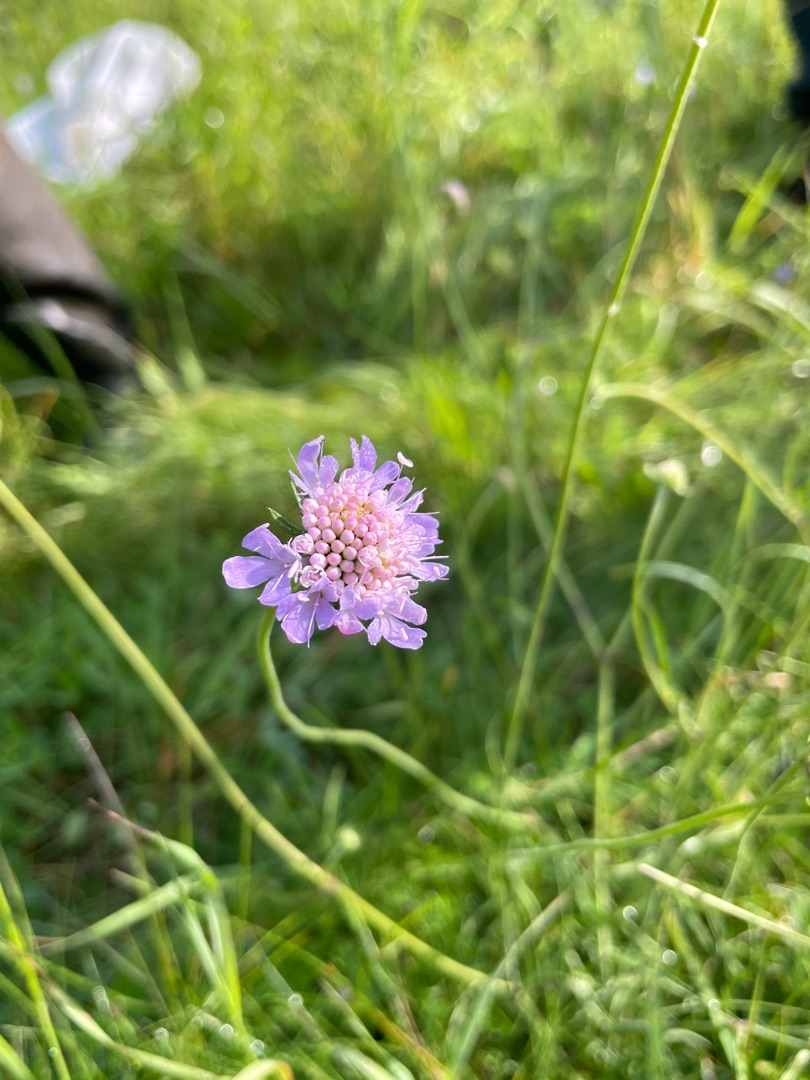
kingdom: Plantae
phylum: Tracheophyta
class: Magnoliopsida
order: Dipsacales
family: Caprifoliaceae
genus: Scabiosa
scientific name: Scabiosa columbaria
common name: Due-skabiose
